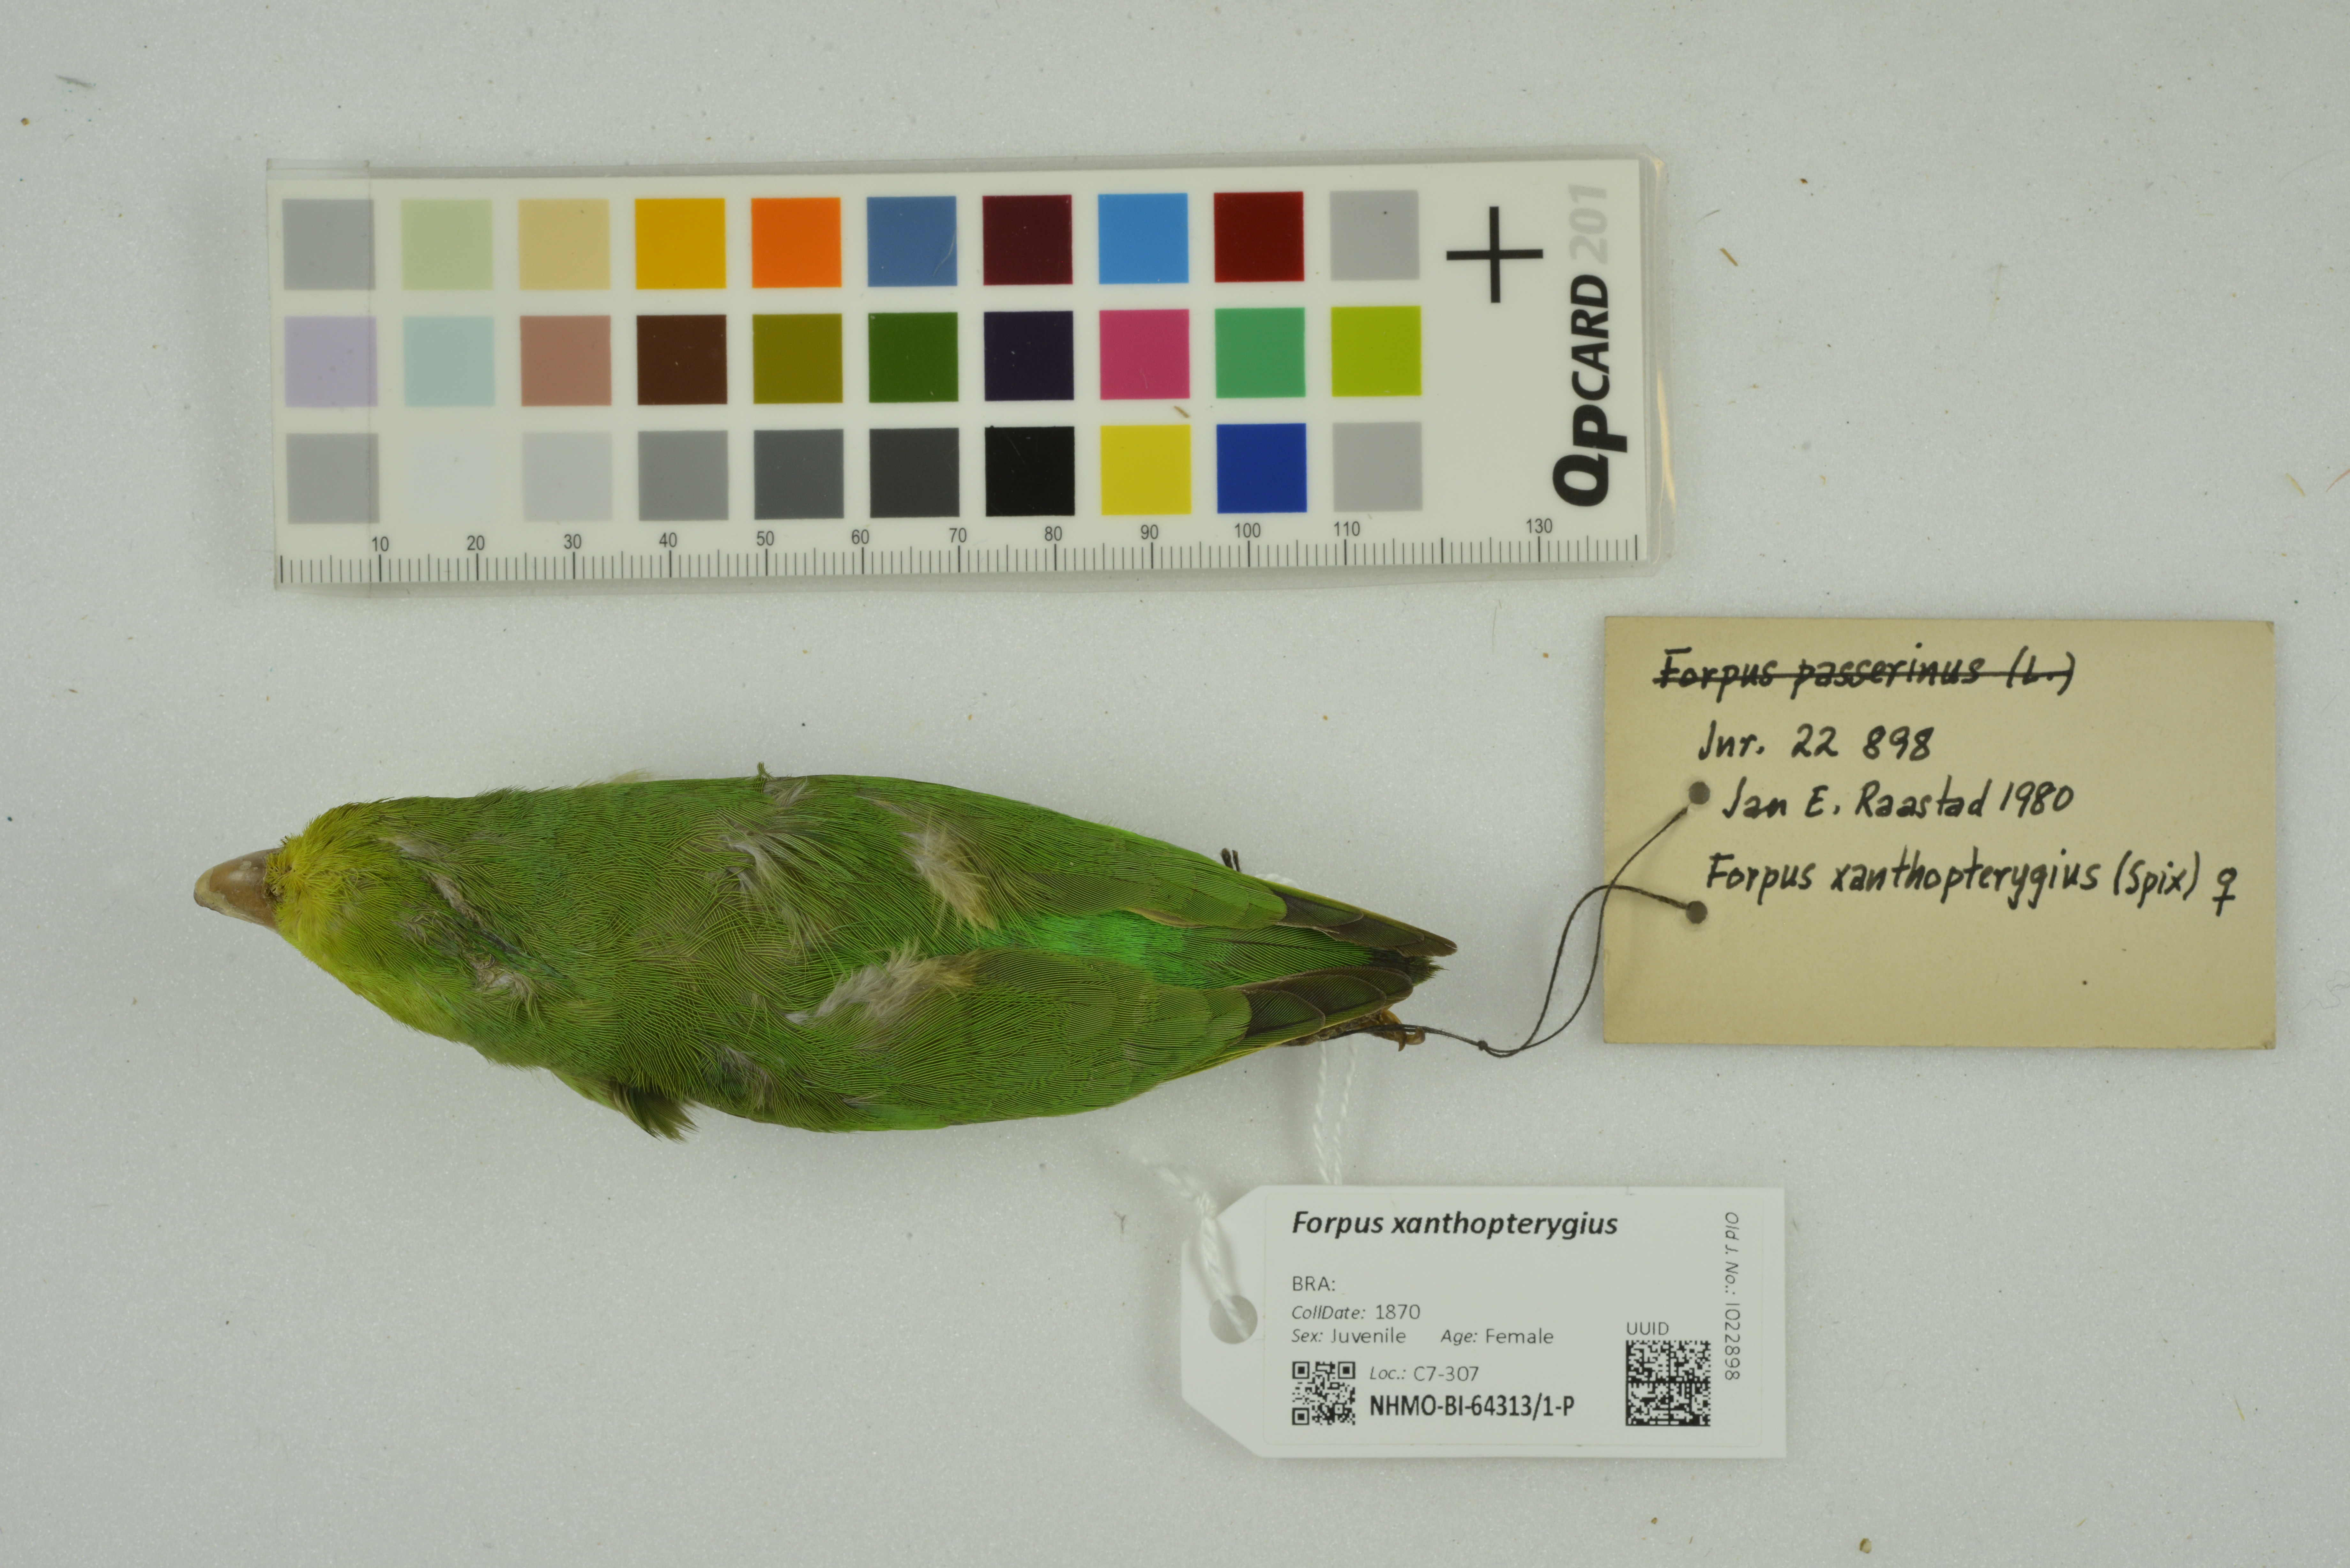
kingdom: Animalia
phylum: Chordata
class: Aves
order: Psittaciformes
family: Psittacidae
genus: Forpus
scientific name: Forpus xanthopterygius
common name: Blue-winged parrotlet
